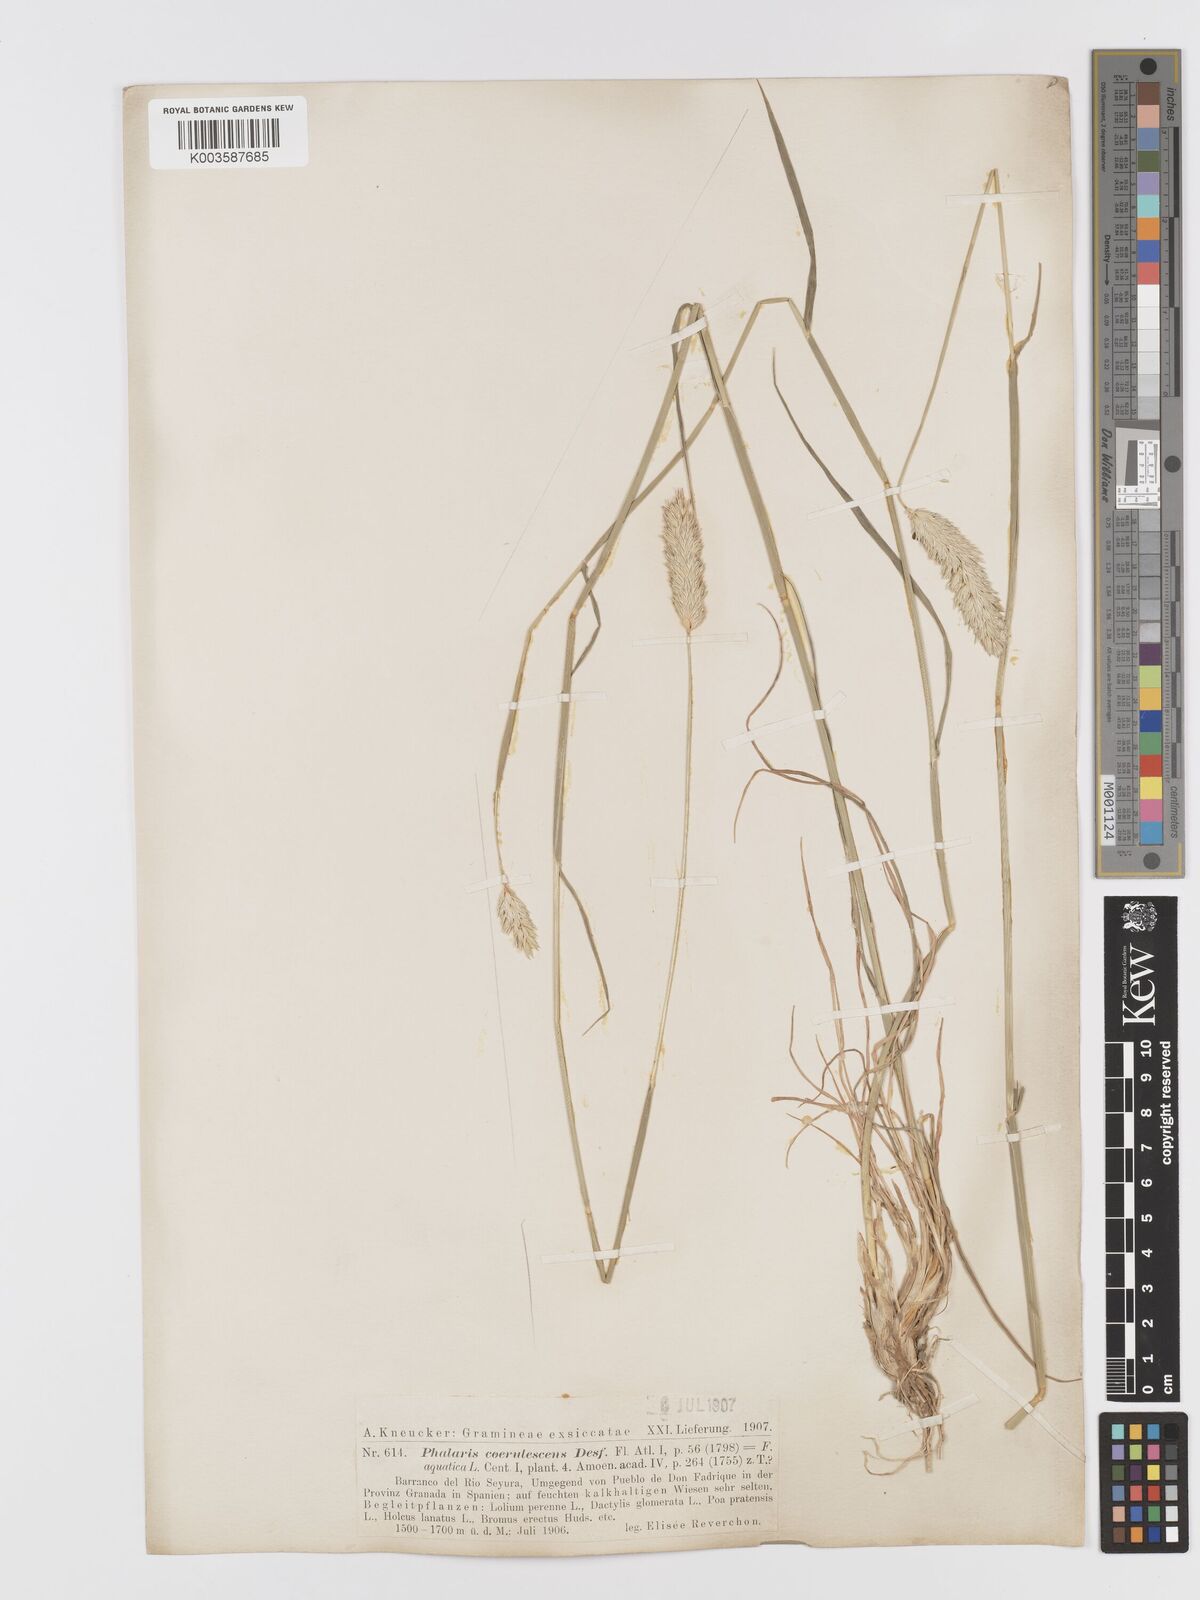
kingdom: Plantae
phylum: Tracheophyta
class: Liliopsida
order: Poales
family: Poaceae
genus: Phalaris
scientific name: Phalaris coerulescens
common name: Sunolgrass
